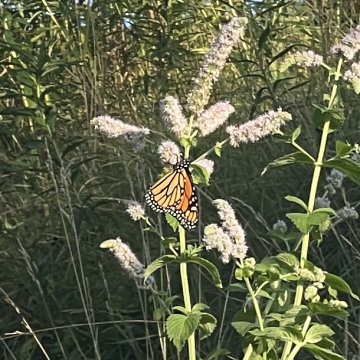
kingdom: Animalia
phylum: Arthropoda
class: Insecta
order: Lepidoptera
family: Nymphalidae
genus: Danaus
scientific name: Danaus plexippus
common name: Monarch
